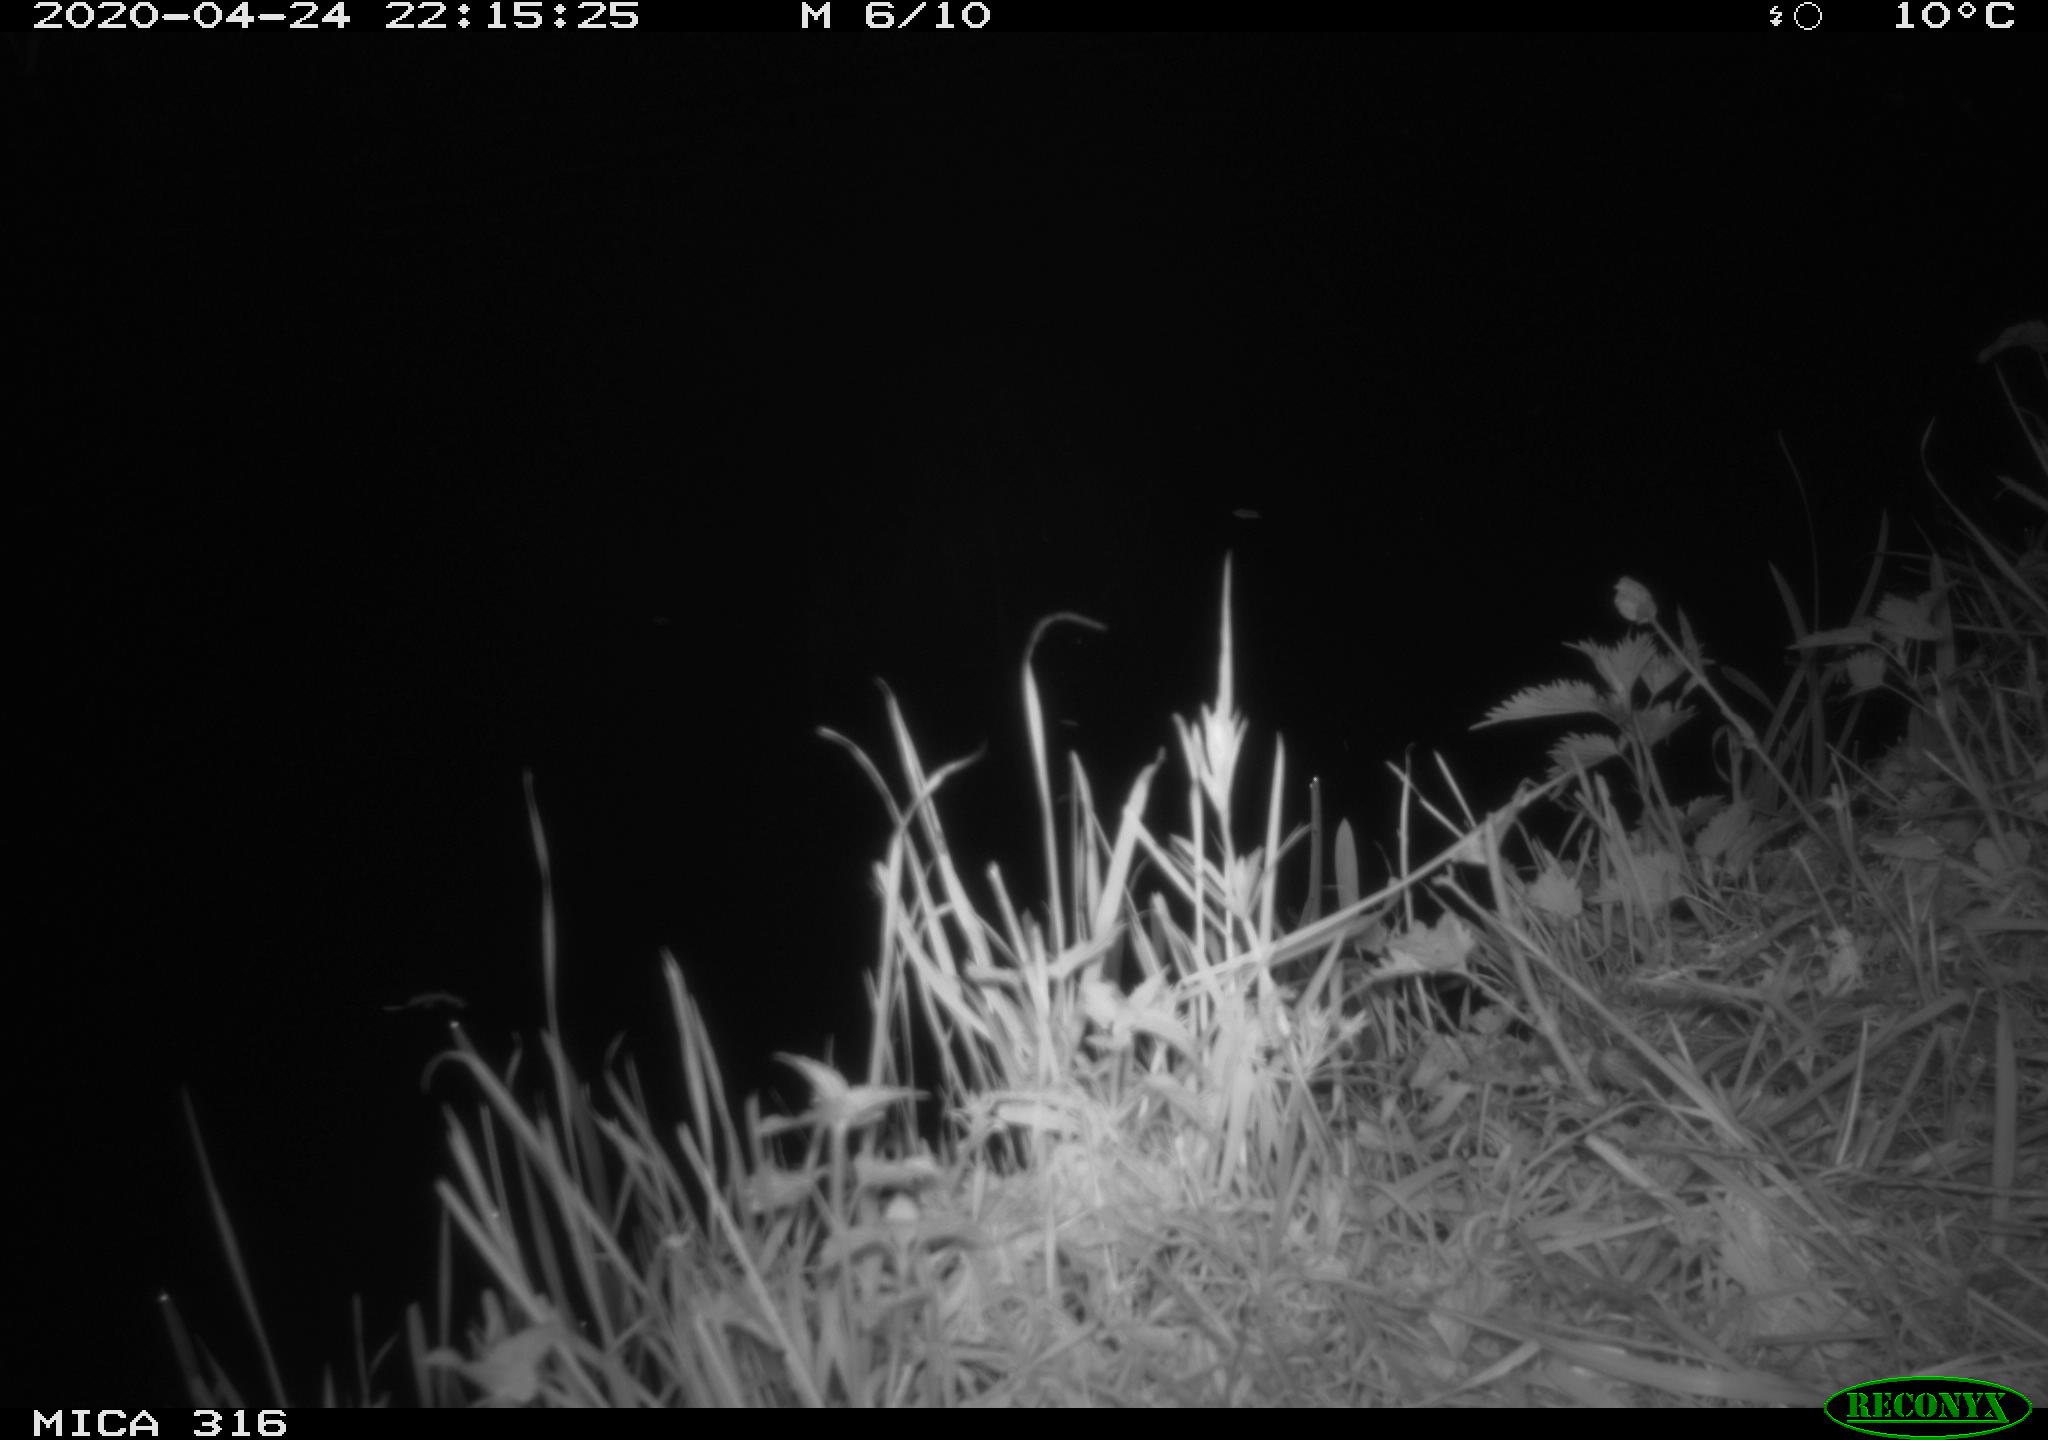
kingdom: Animalia
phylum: Chordata
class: Aves
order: Anseriformes
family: Anatidae
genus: Anas
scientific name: Anas platyrhynchos
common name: Mallard
